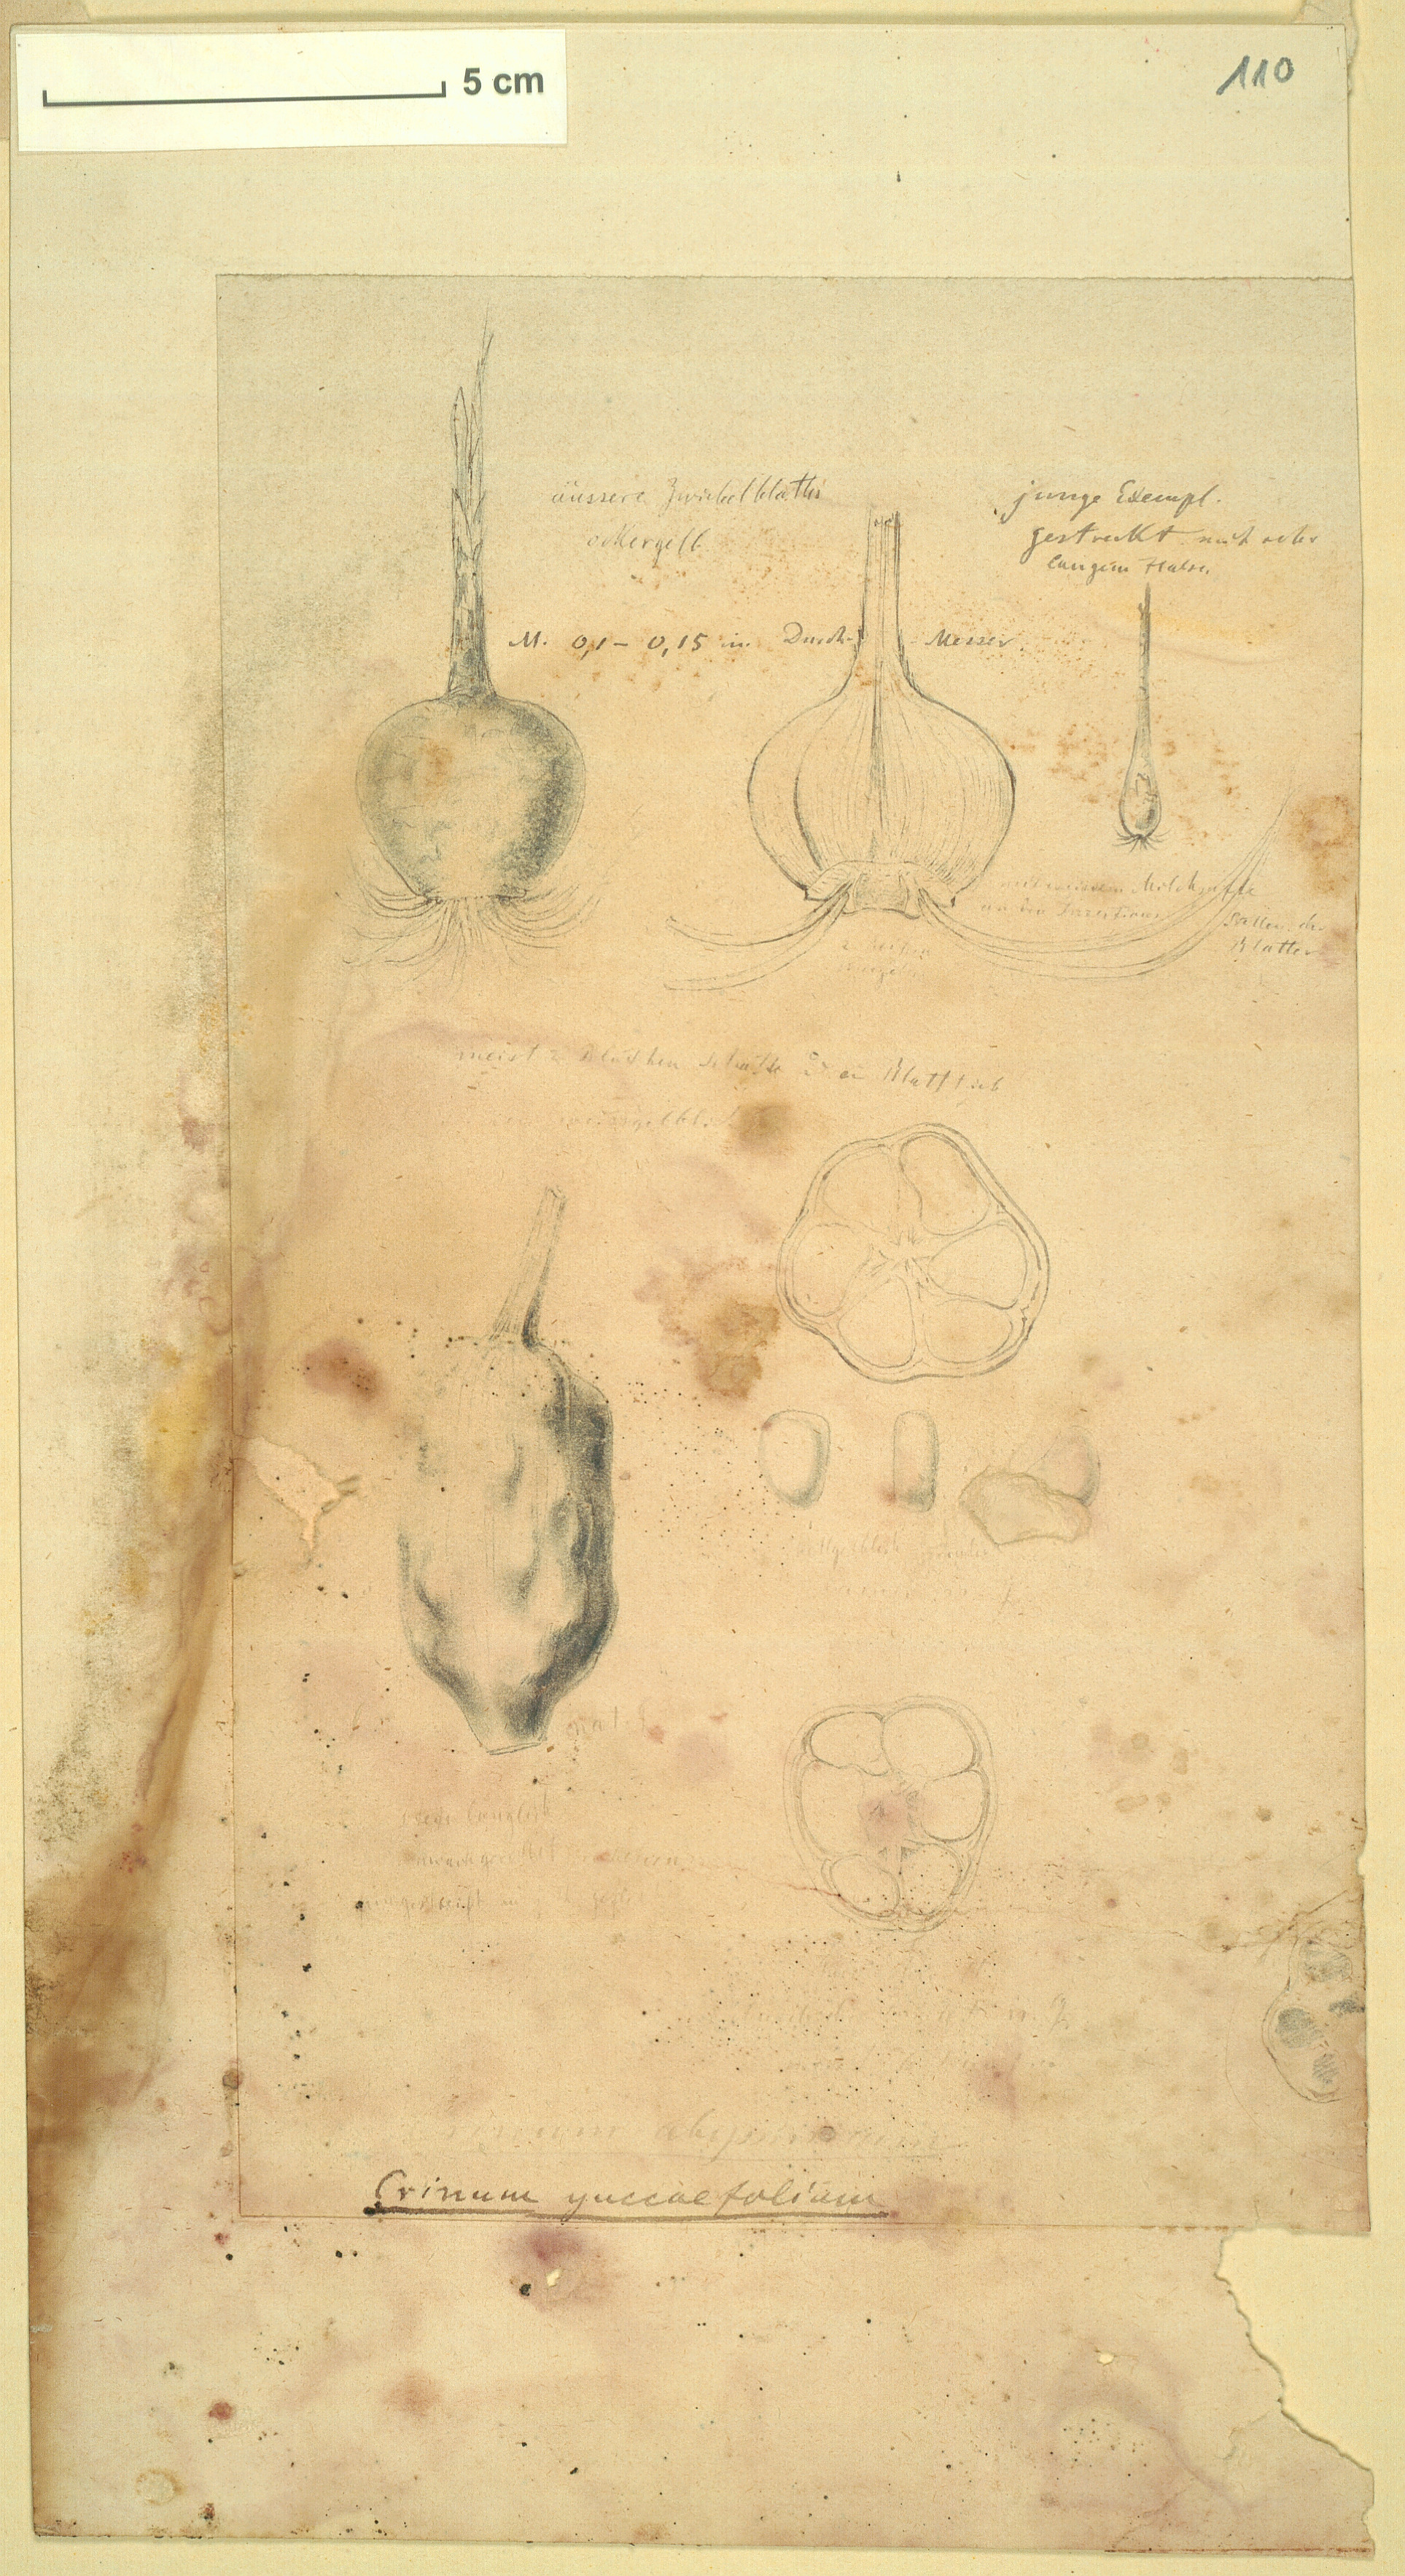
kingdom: Plantae
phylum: Tracheophyta
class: Liliopsida
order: Asparagales
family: Amaryllidaceae
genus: Crinum
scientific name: Crinum abyssinicum
